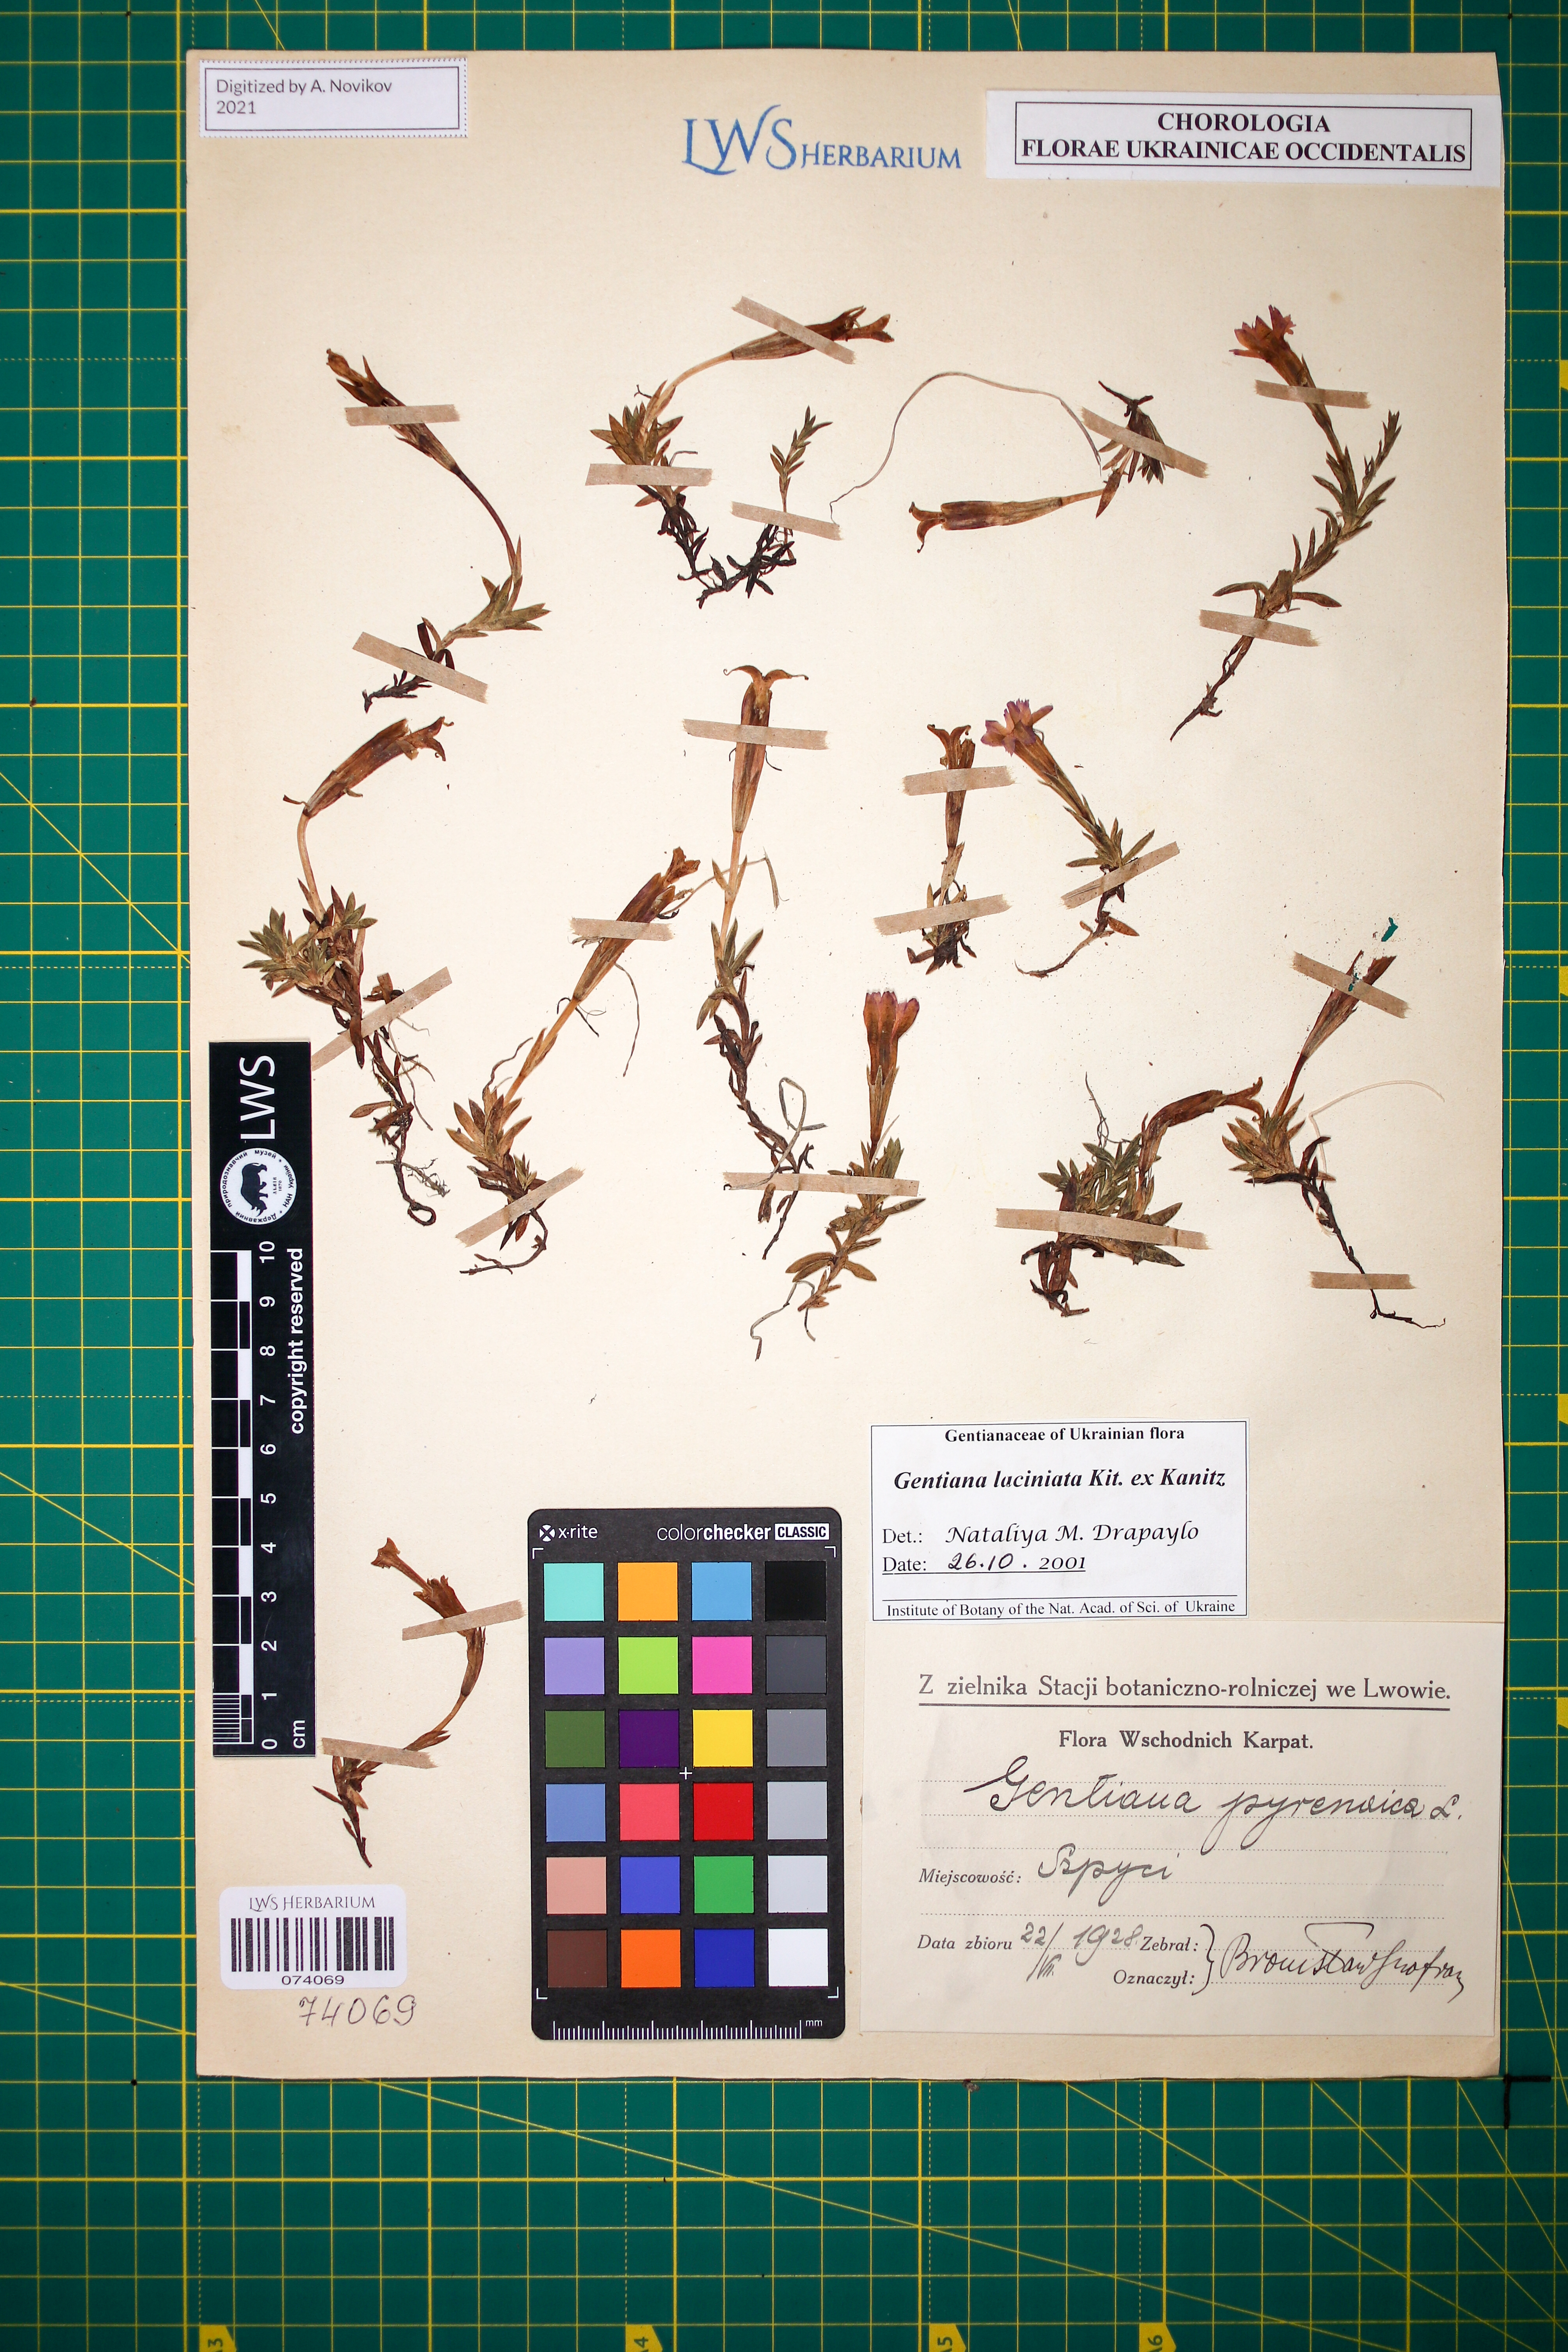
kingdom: Plantae
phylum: Tracheophyta
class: Magnoliopsida
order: Gentianales
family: Gentianaceae
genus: Gentiana
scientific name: Gentiana laciniata
